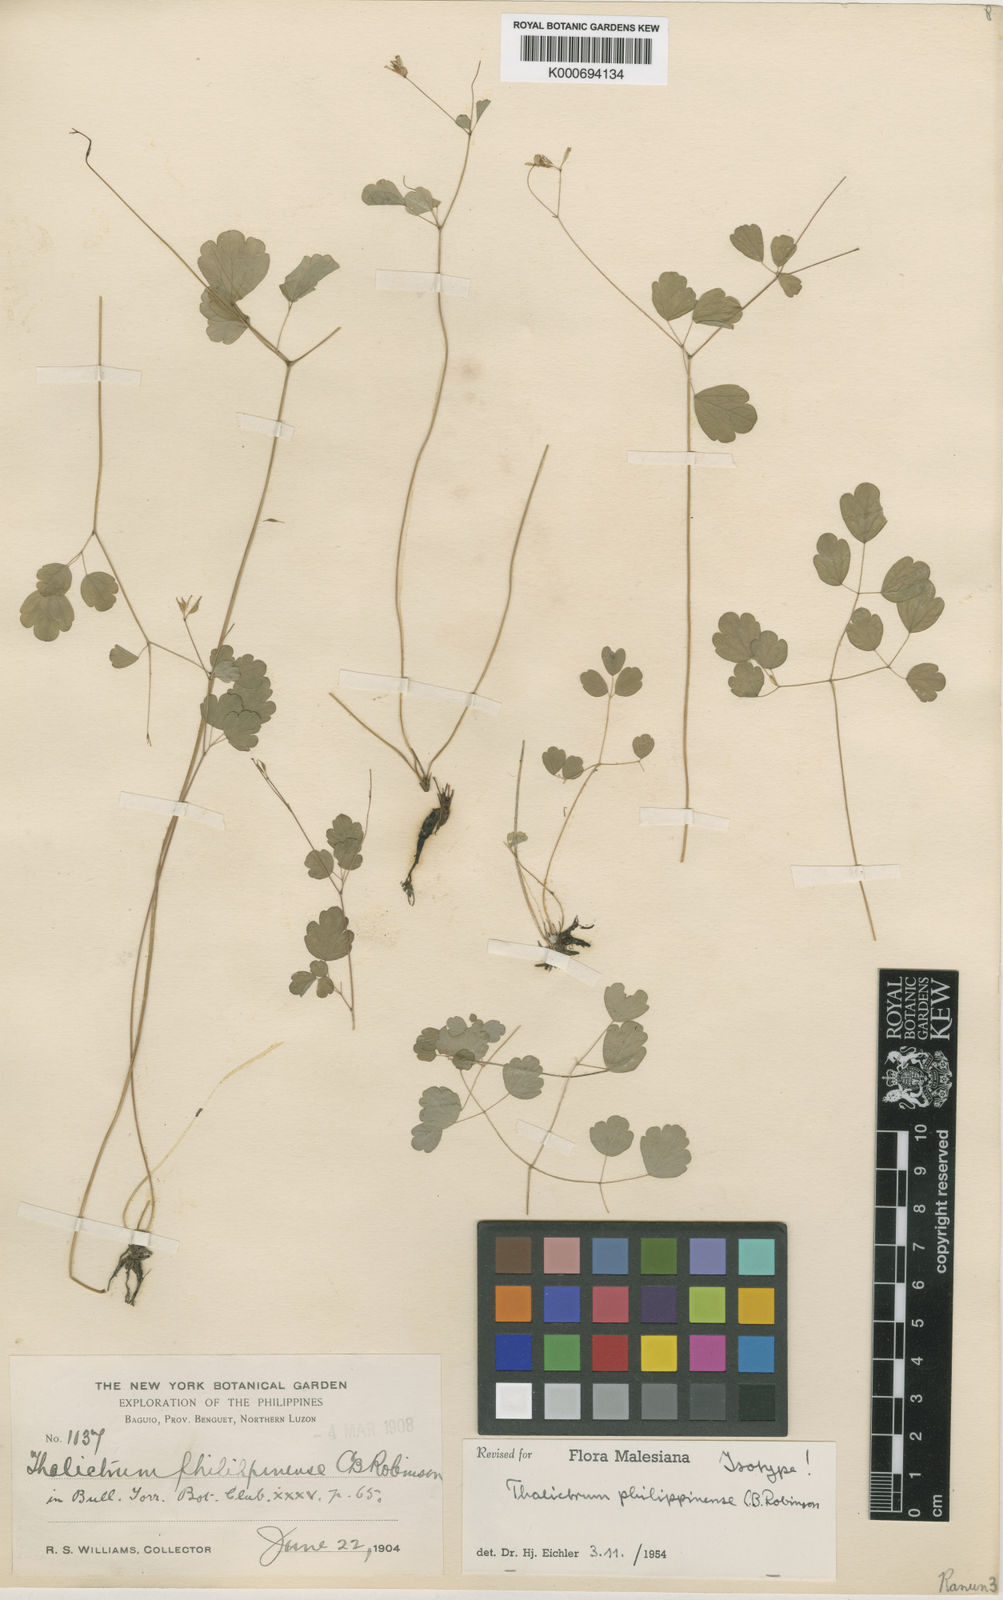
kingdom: Plantae
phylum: Tracheophyta
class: Magnoliopsida
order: Ranunculales
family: Ranunculaceae
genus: Thalictrum
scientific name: Thalictrum philippinense
